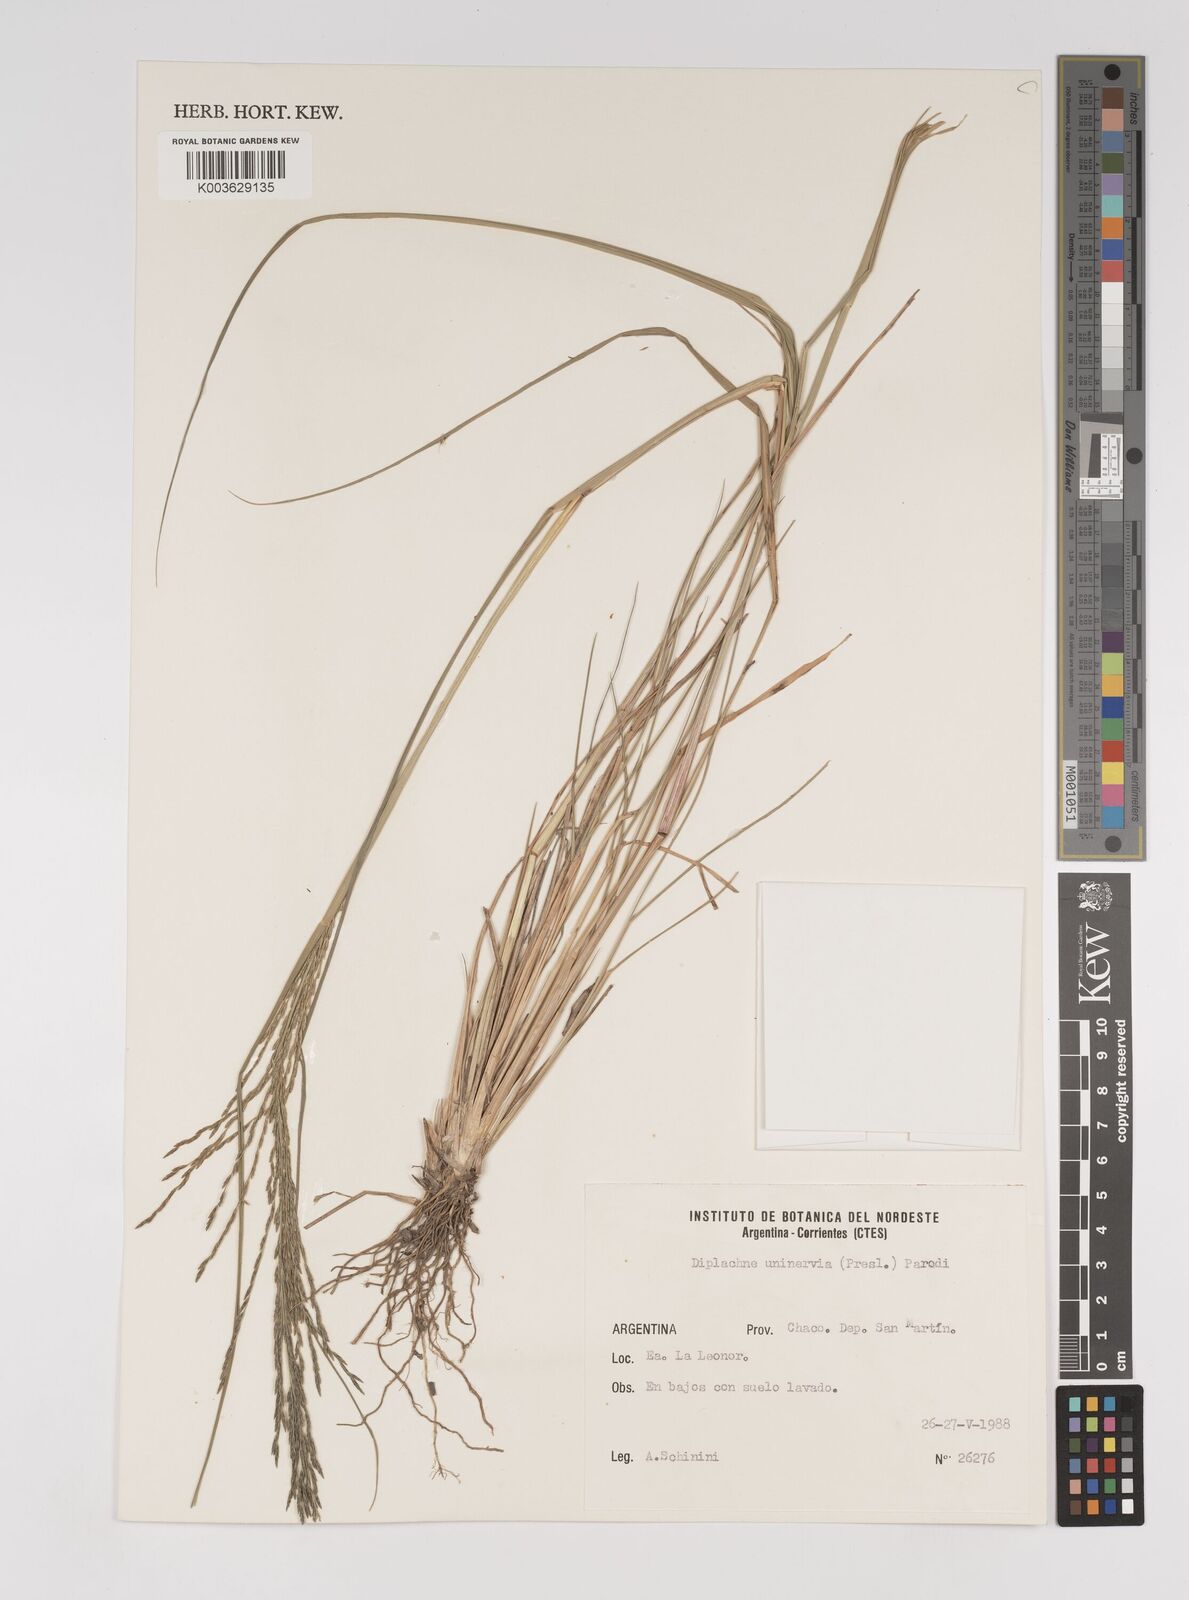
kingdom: Plantae
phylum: Tracheophyta
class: Liliopsida
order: Poales
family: Poaceae
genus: Diplachne
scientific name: Diplachne fusca
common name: Brown beetle grass
